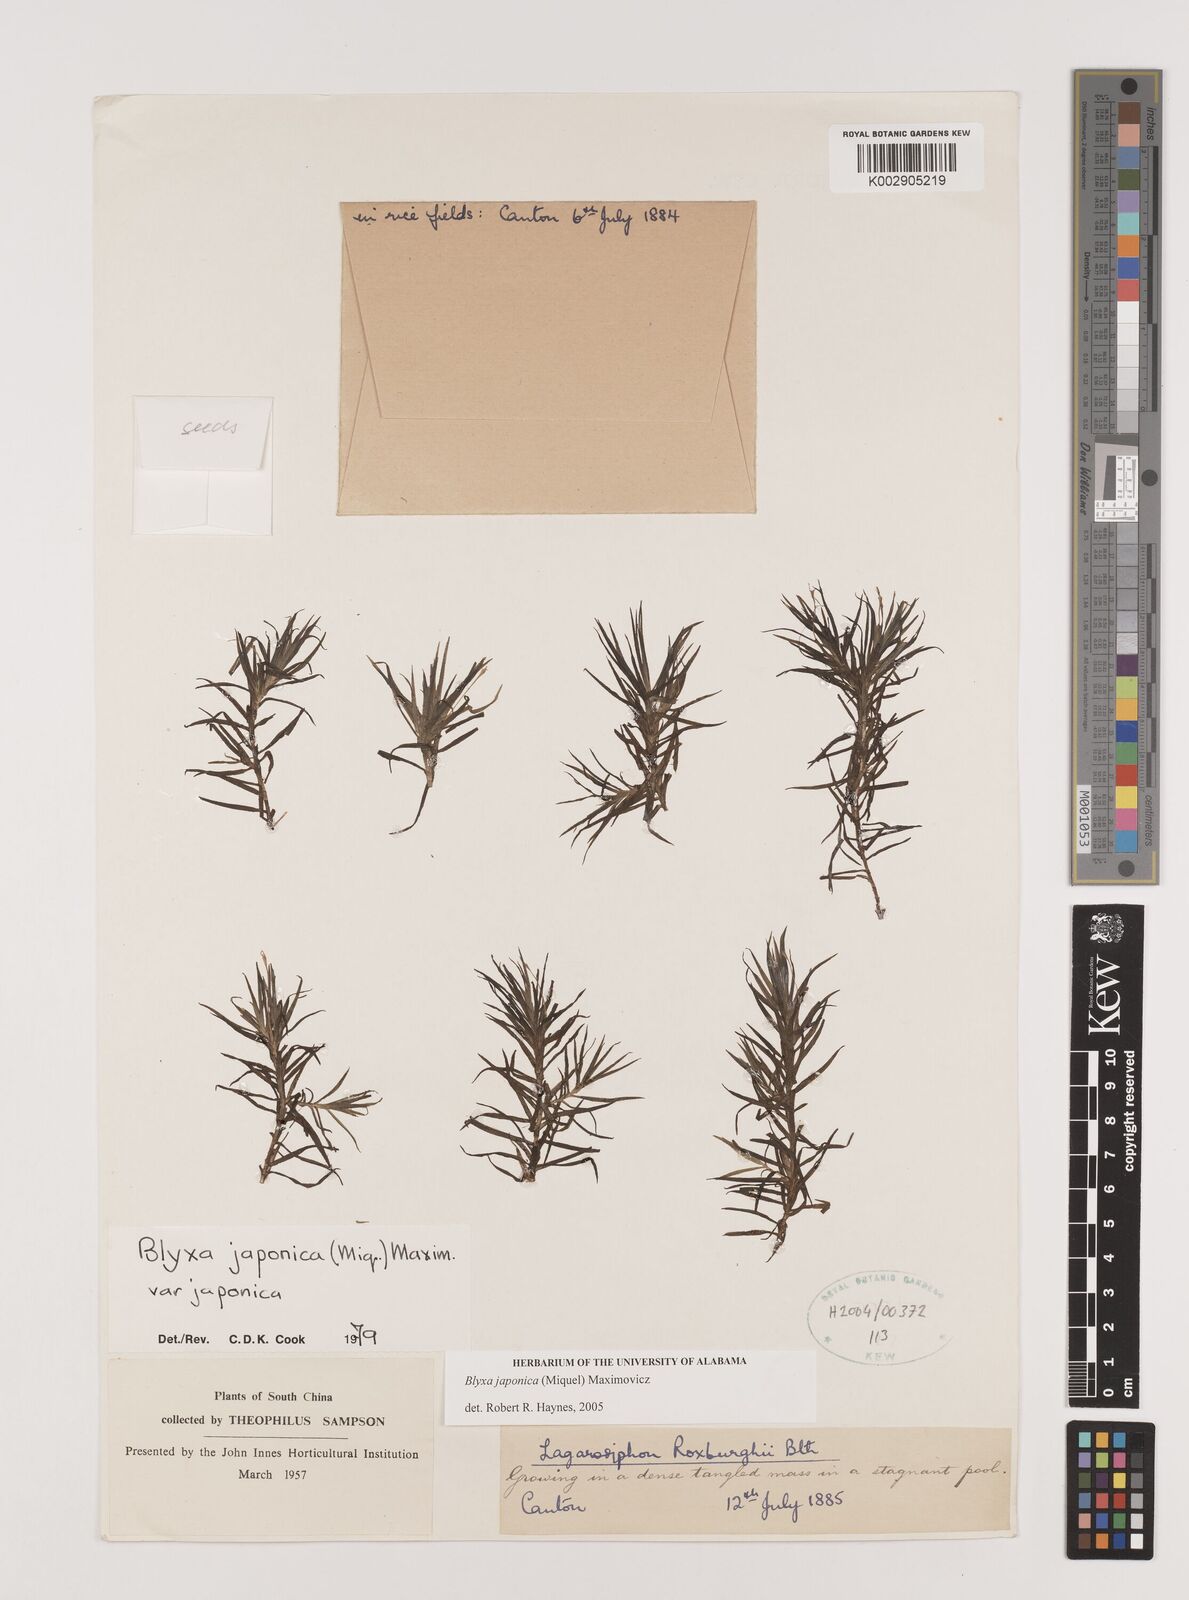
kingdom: Plantae
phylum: Tracheophyta
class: Liliopsida
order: Alismatales
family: Hydrocharitaceae
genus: Blyxa
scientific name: Blyxa japonica
